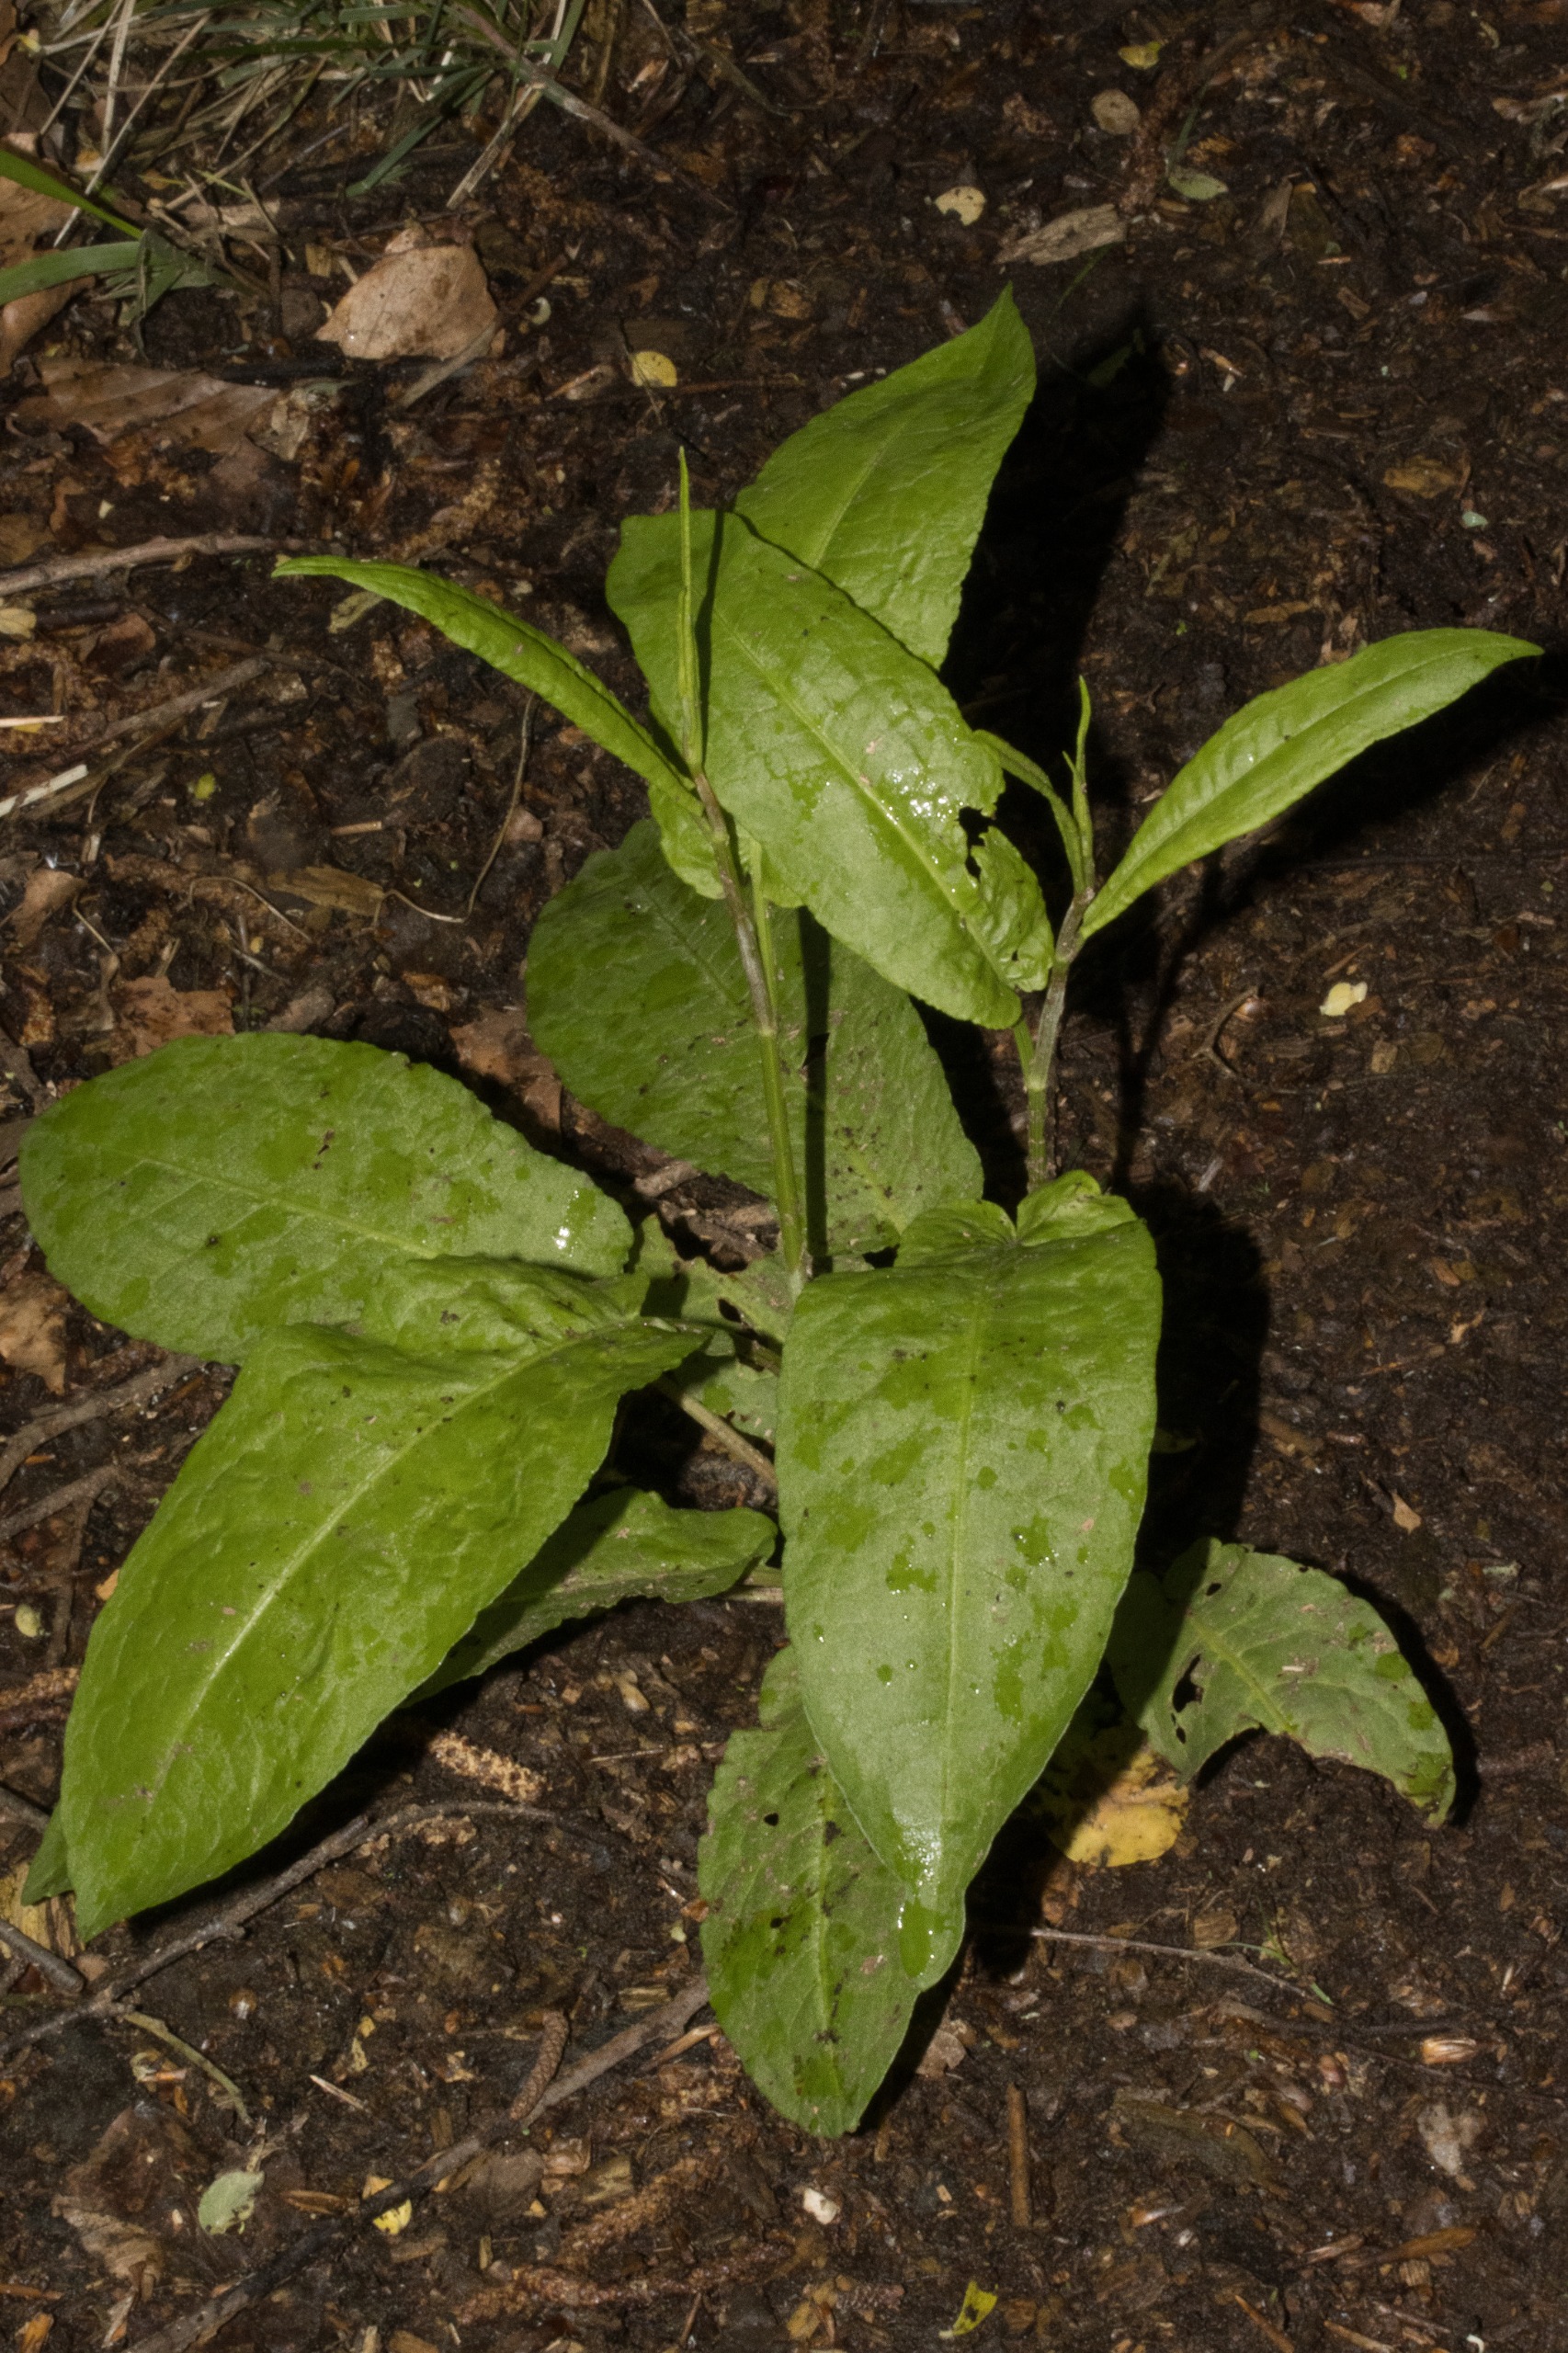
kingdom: Plantae
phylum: Tracheophyta
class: Magnoliopsida
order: Caryophyllales
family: Polygonaceae
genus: Rumex
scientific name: Rumex sanguineus
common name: Skov-skræppe
